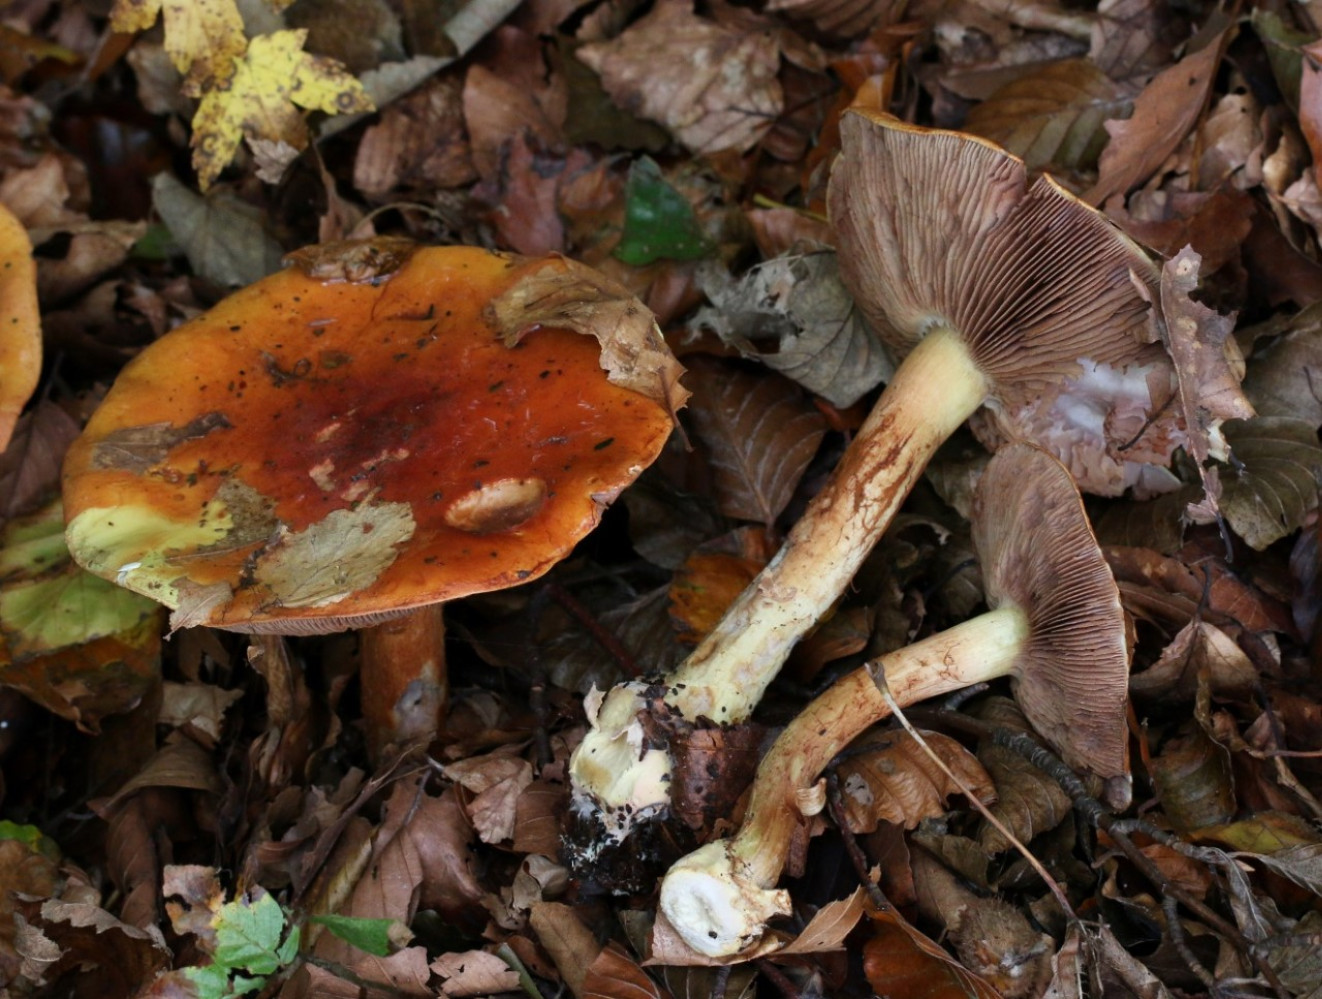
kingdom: Fungi
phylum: Basidiomycota
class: Agaricomycetes
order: Agaricales
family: Cortinariaceae
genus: Calonarius
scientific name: Calonarius elegantissimus
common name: orangegylden slørhat
